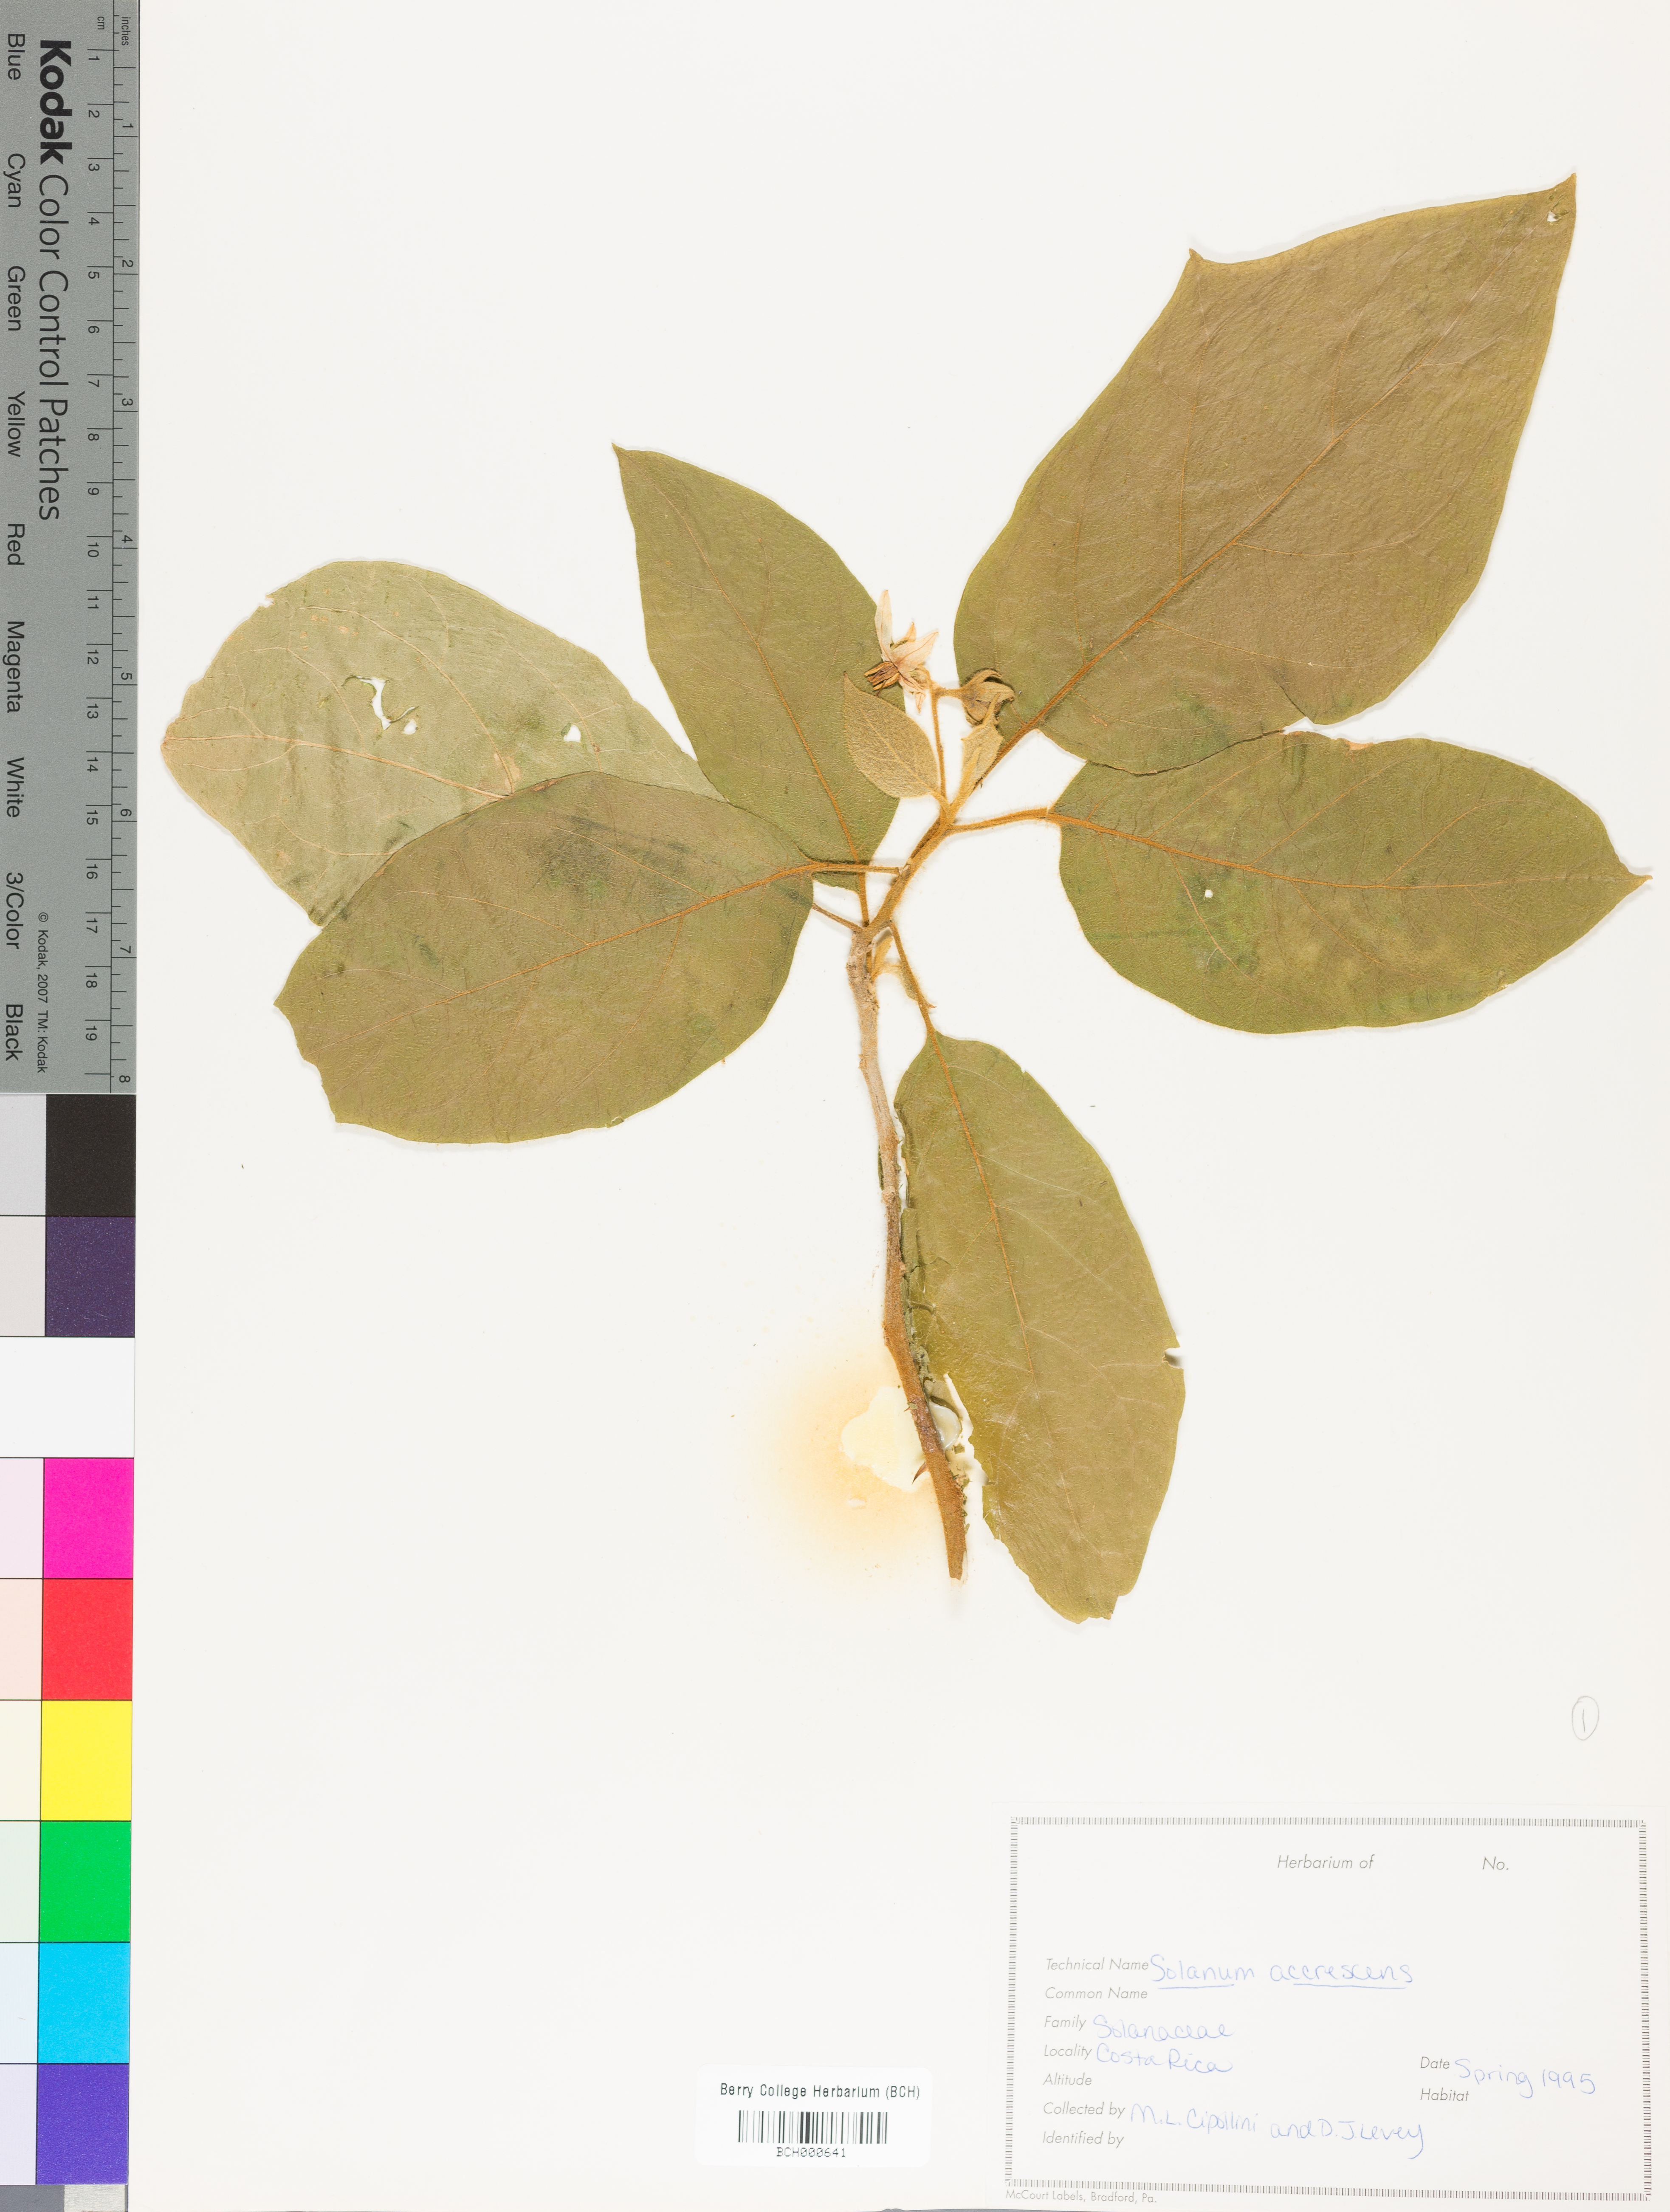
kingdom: Plantae
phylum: Tracheophyta
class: Magnoliopsida
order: Solanales
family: Solanaceae
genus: Solanum
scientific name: Solanum accrescens
